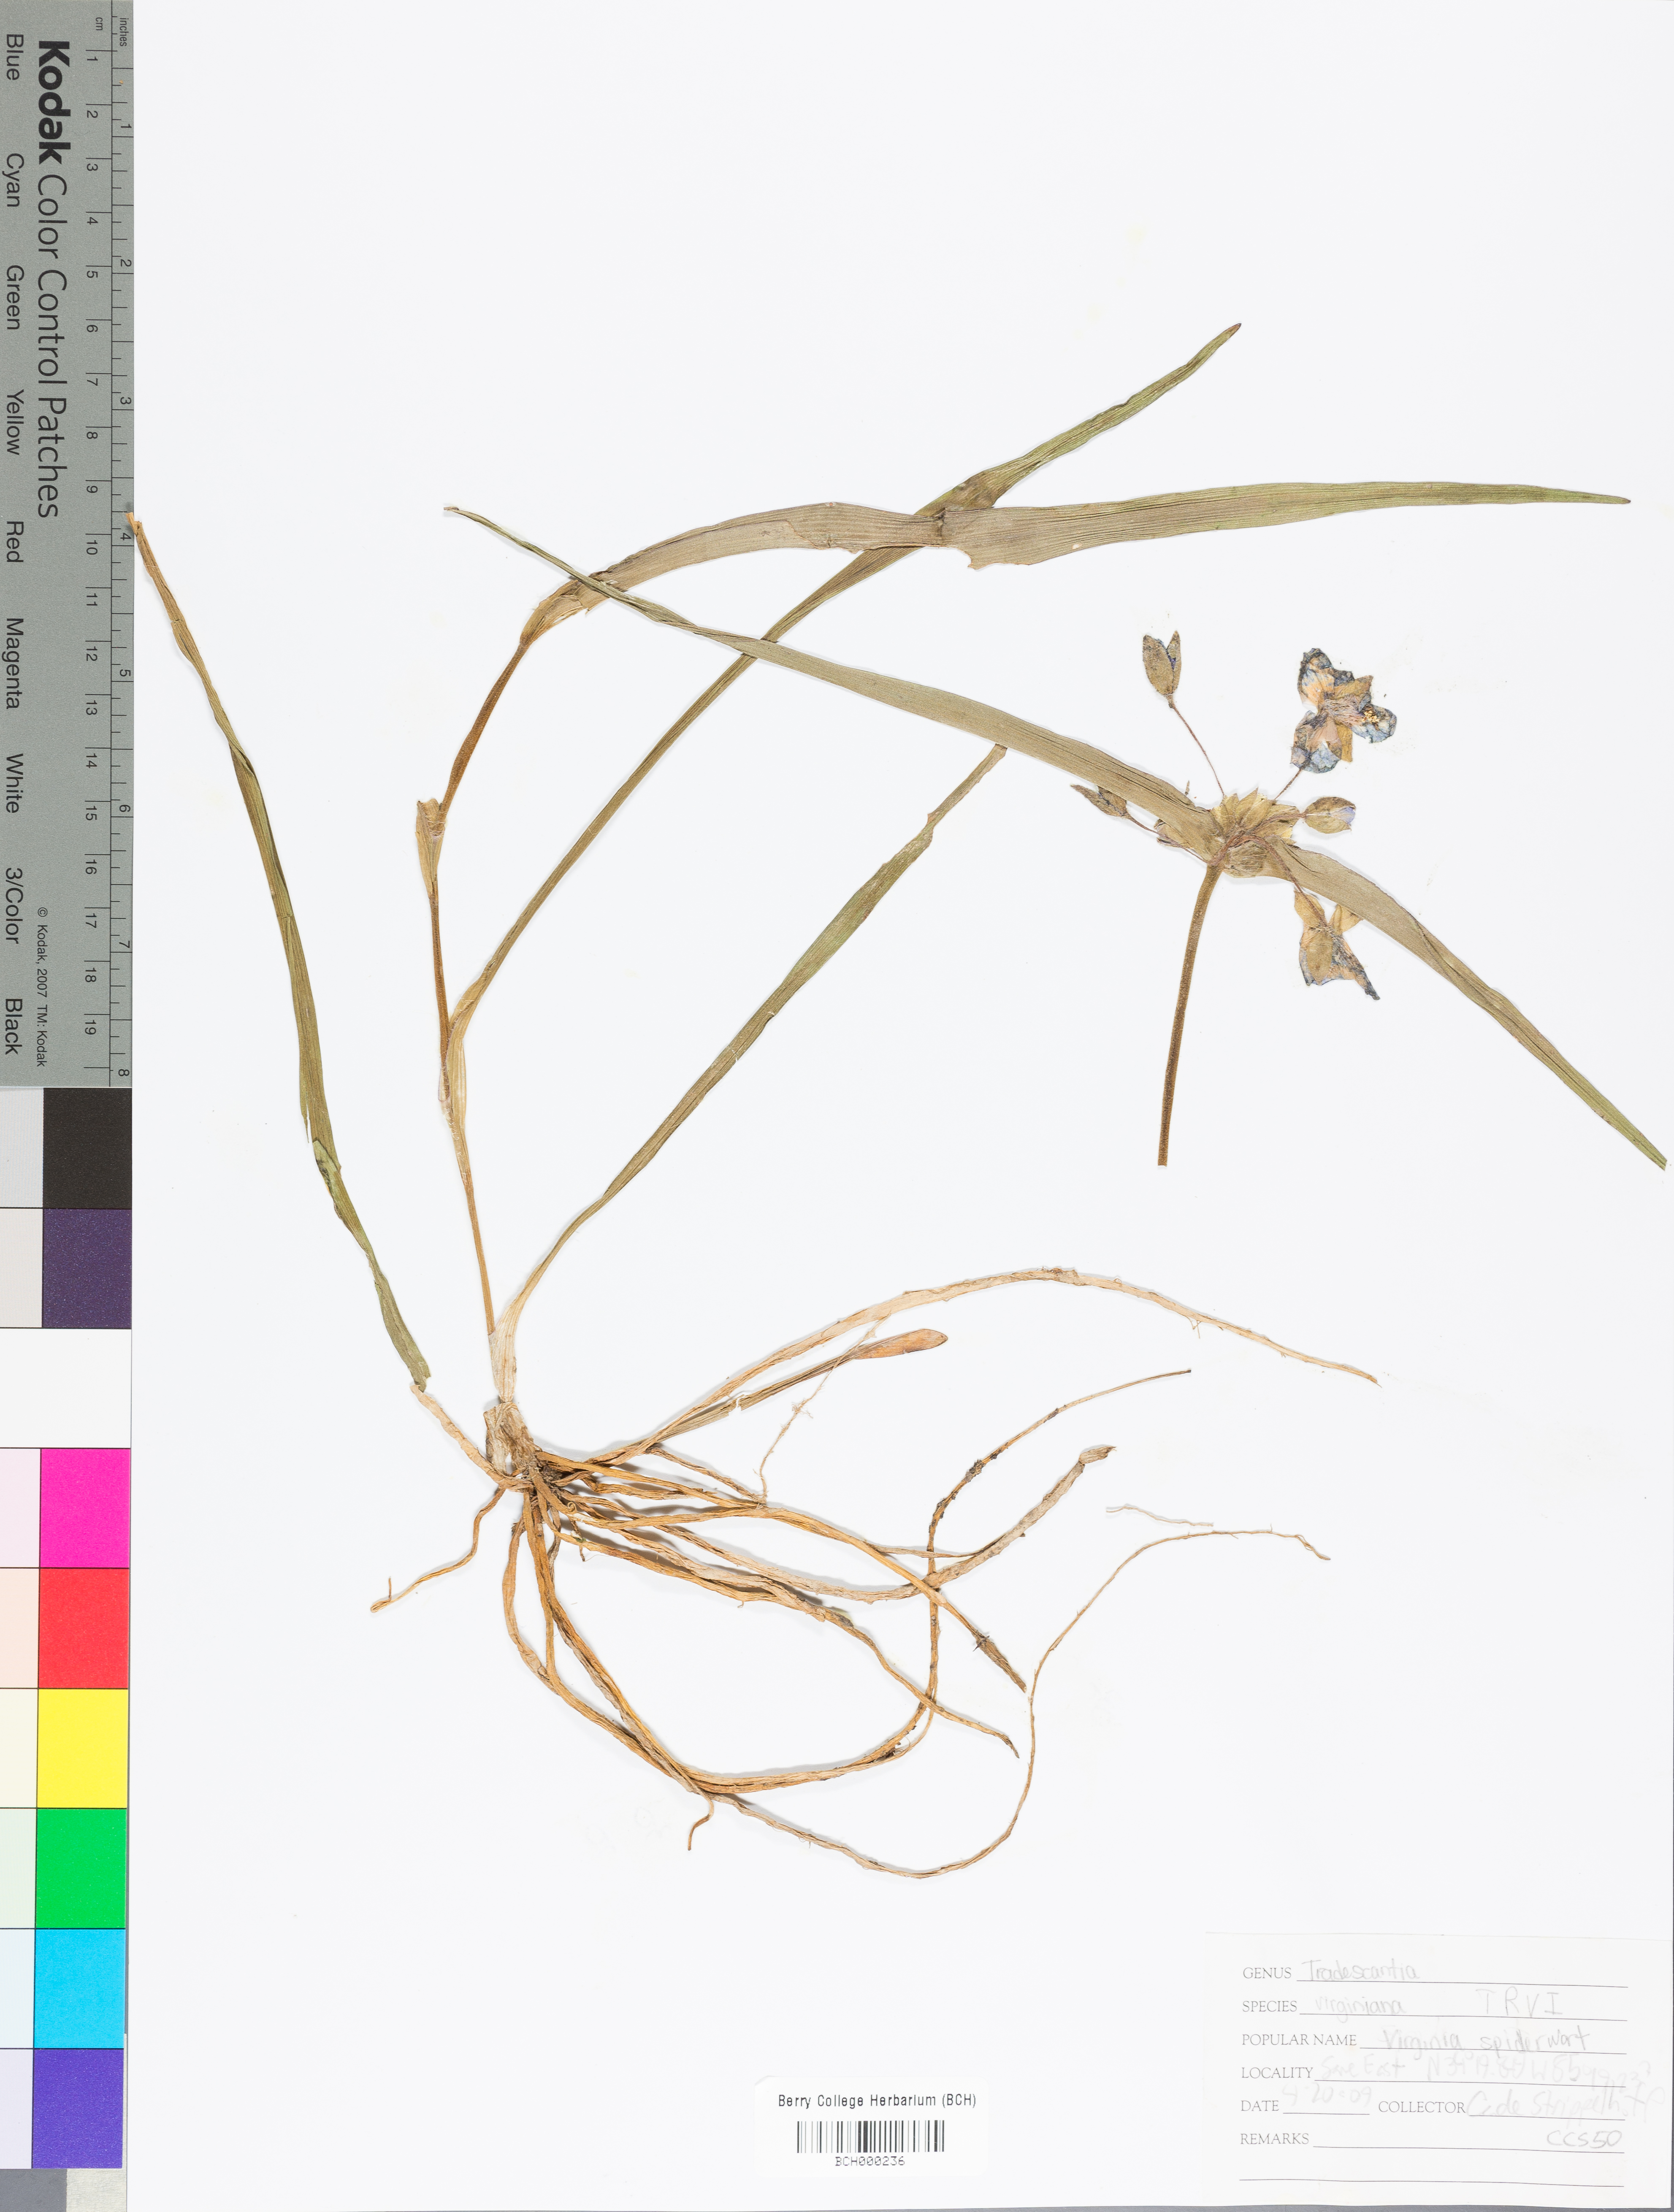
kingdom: Plantae
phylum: Tracheophyta
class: Liliopsida
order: Commelinales
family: Commelinaceae
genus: Tradescantia
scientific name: Tradescantia virginiana
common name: Spiderwort
